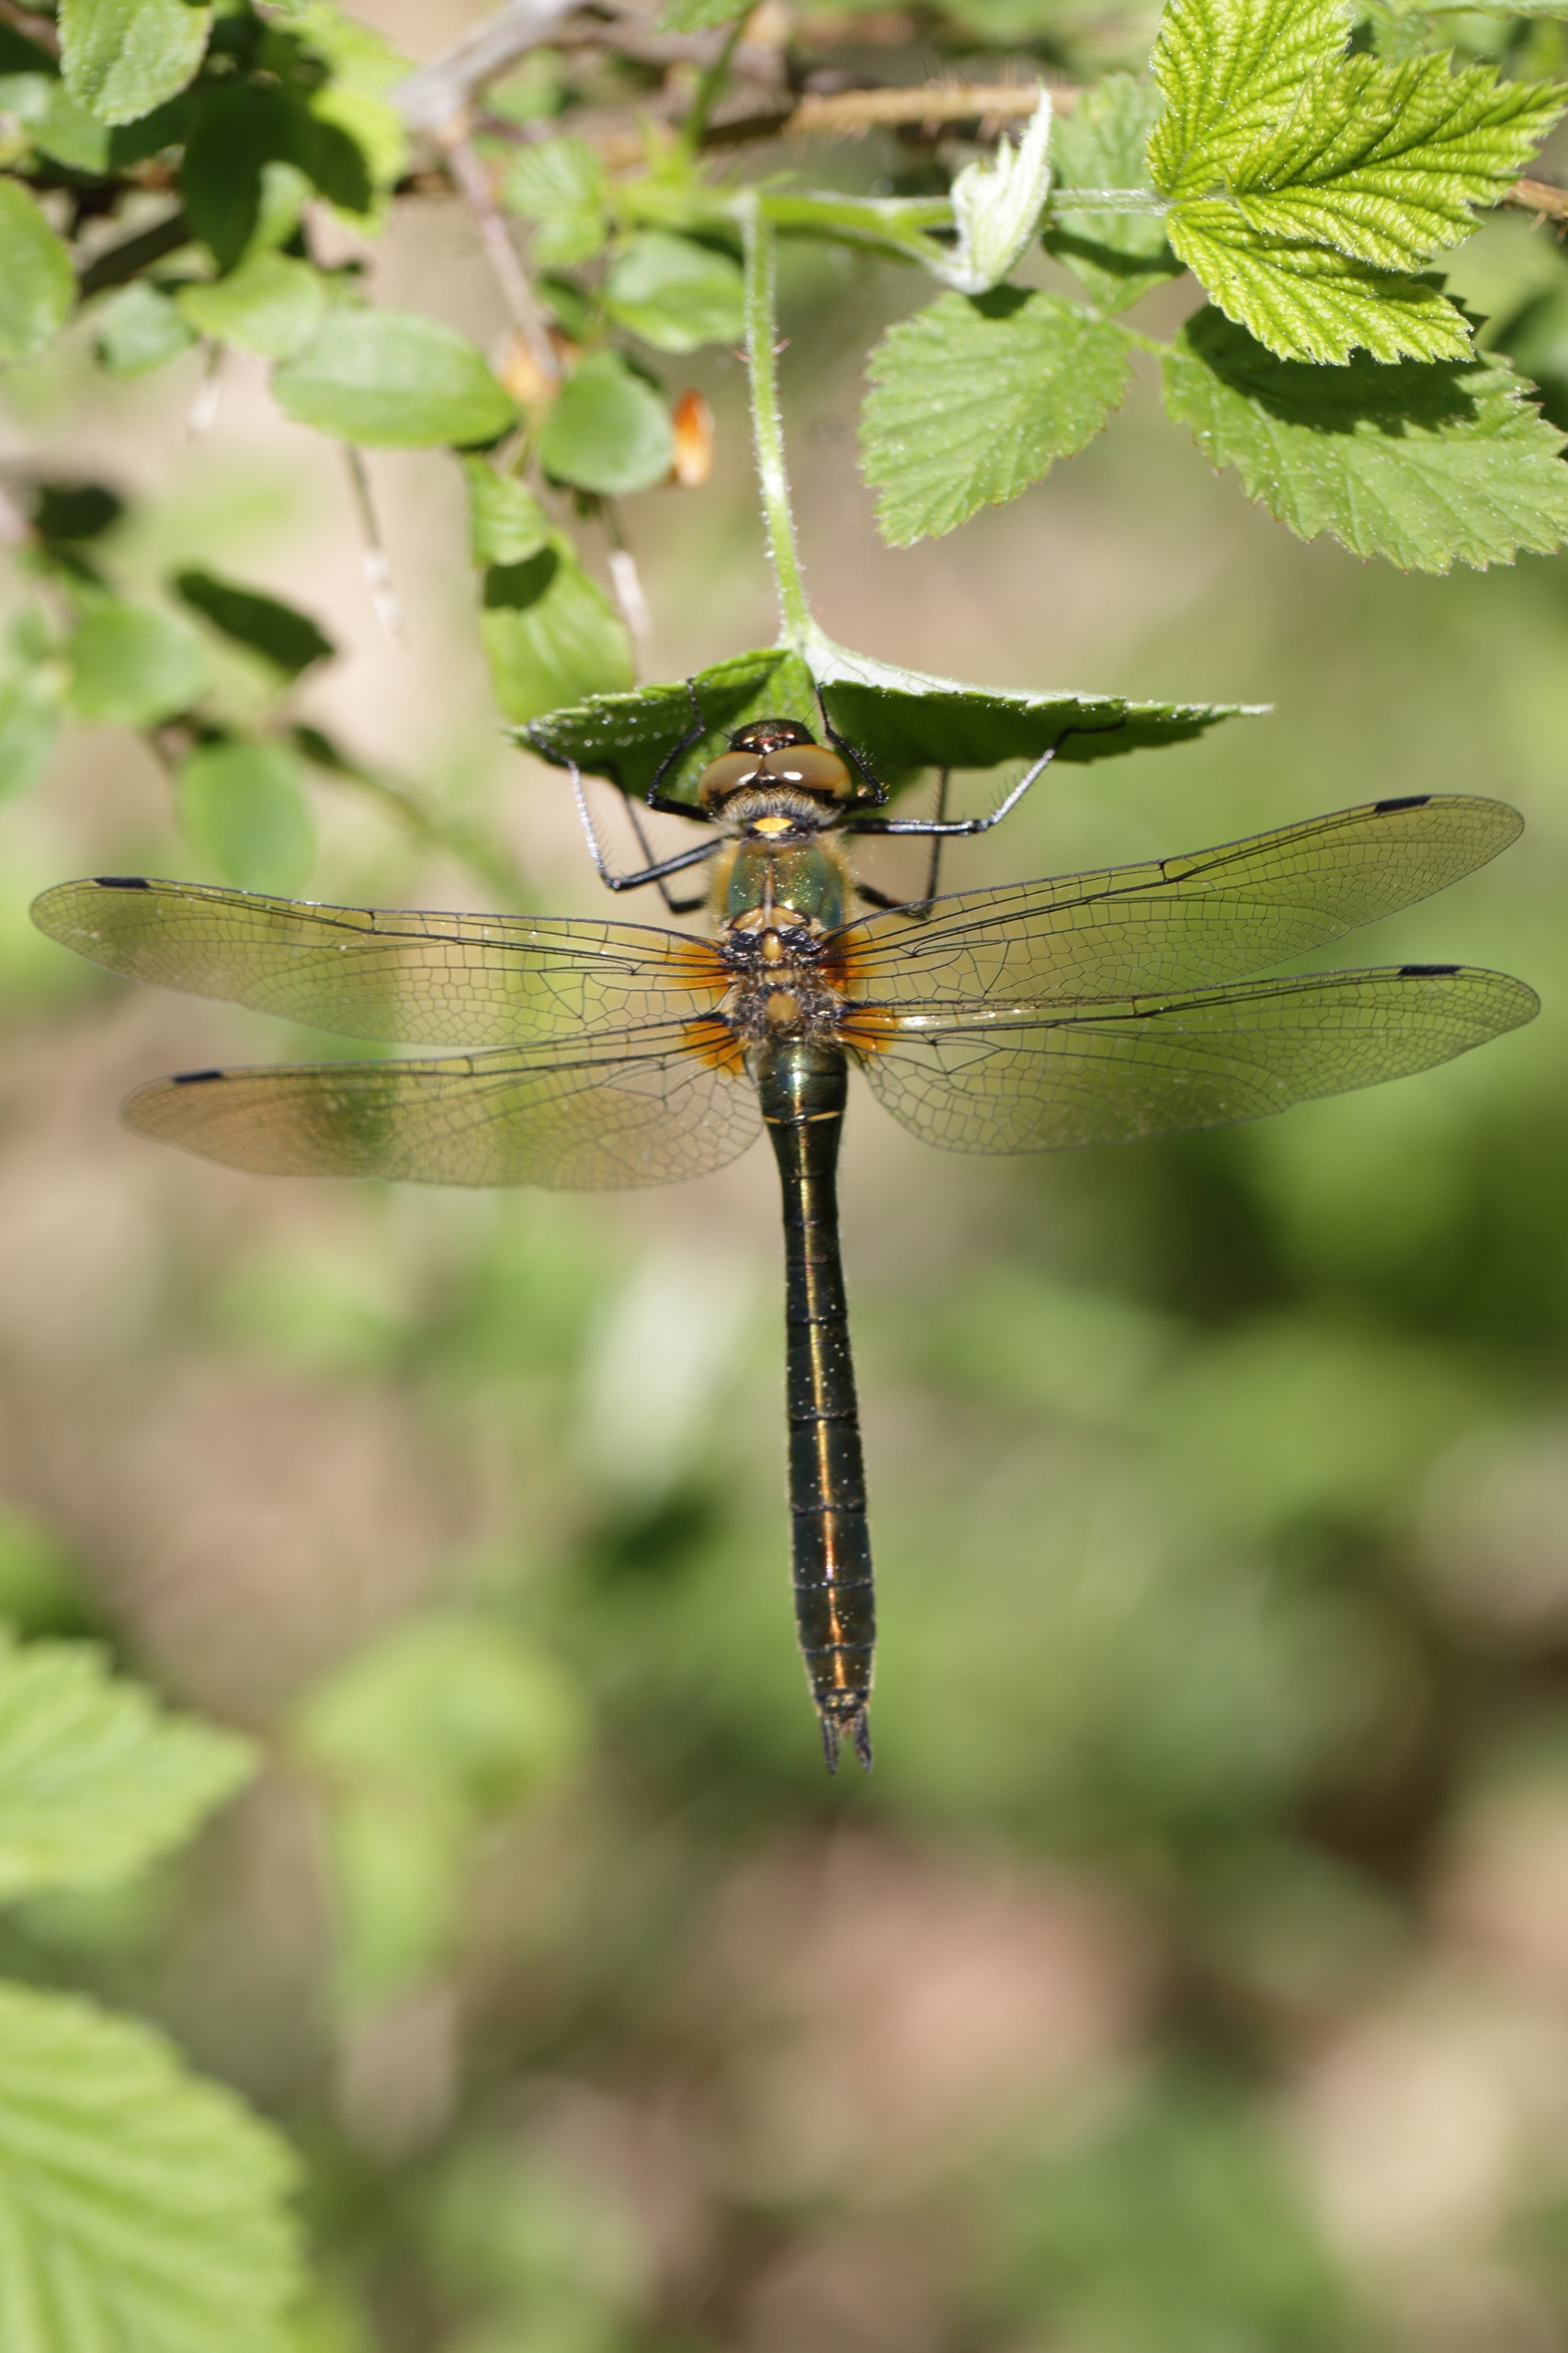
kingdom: Animalia
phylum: Arthropoda
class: Insecta
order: Odonata
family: Corduliidae
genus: Cordulia
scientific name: Cordulia aenea
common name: Grøn smaragdlibel
